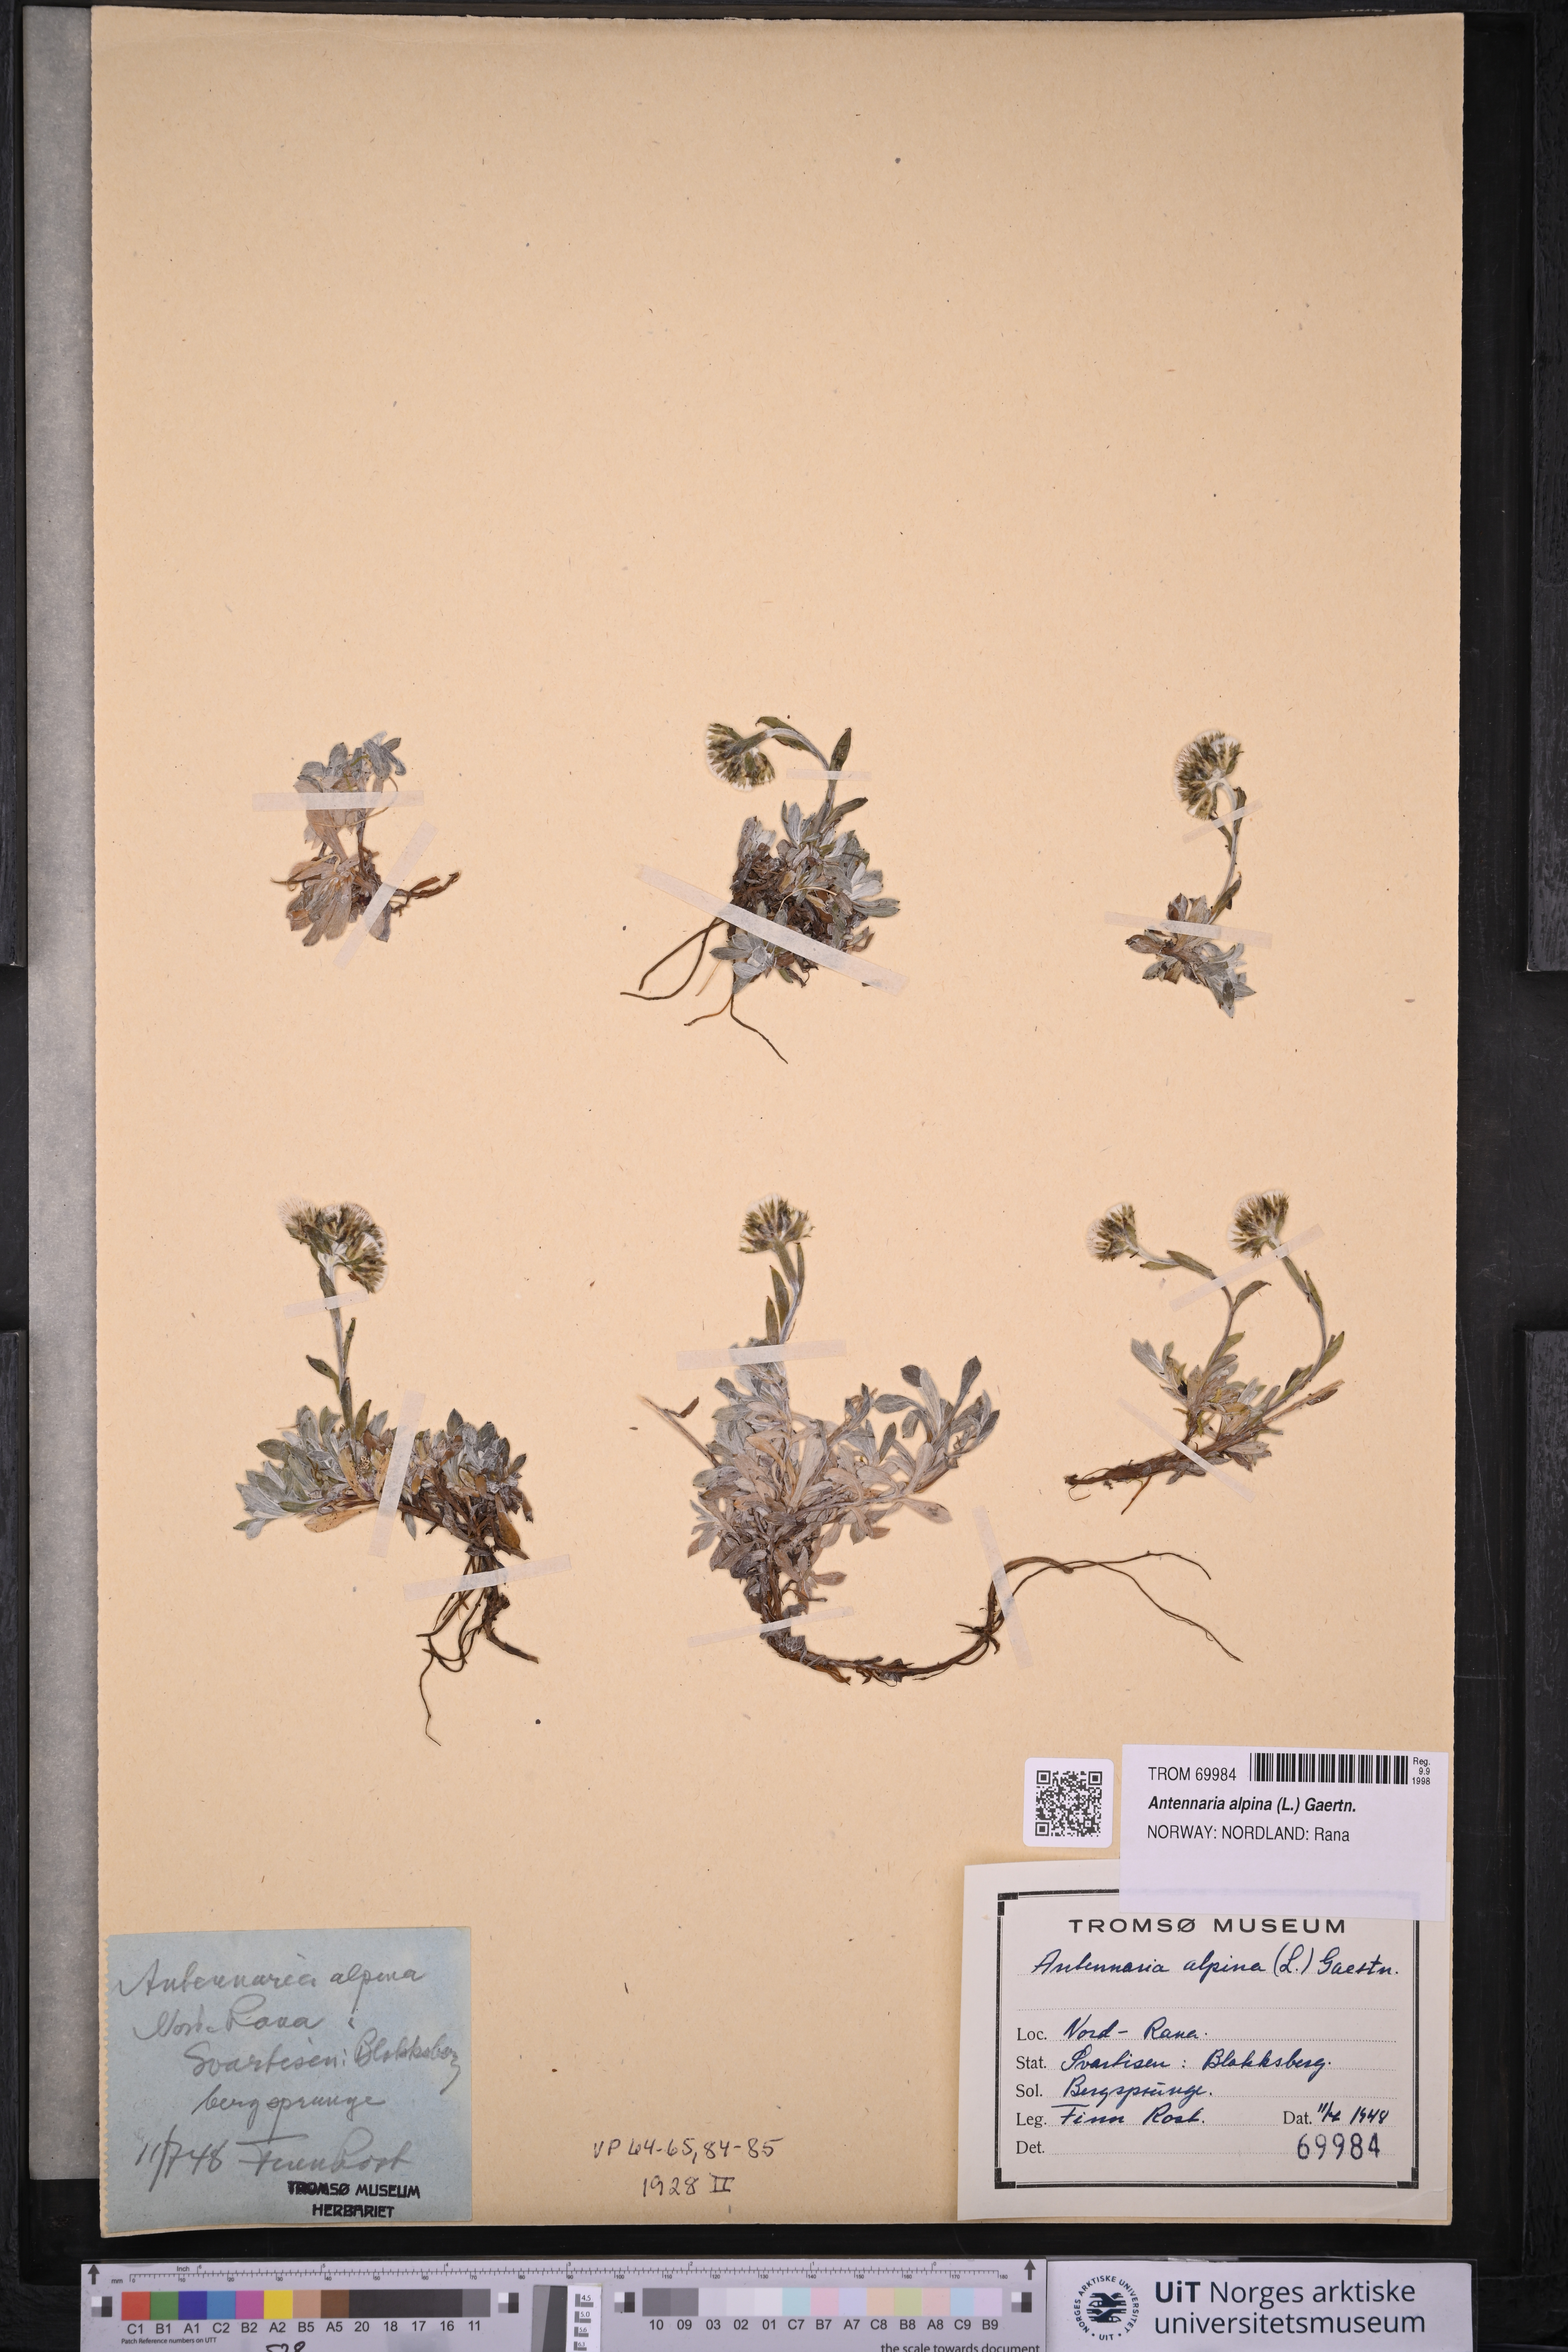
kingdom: Plantae
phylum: Tracheophyta
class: Magnoliopsida
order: Asterales
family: Asteraceae
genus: Antennaria
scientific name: Antennaria alpina
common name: Alpine pussytoes
